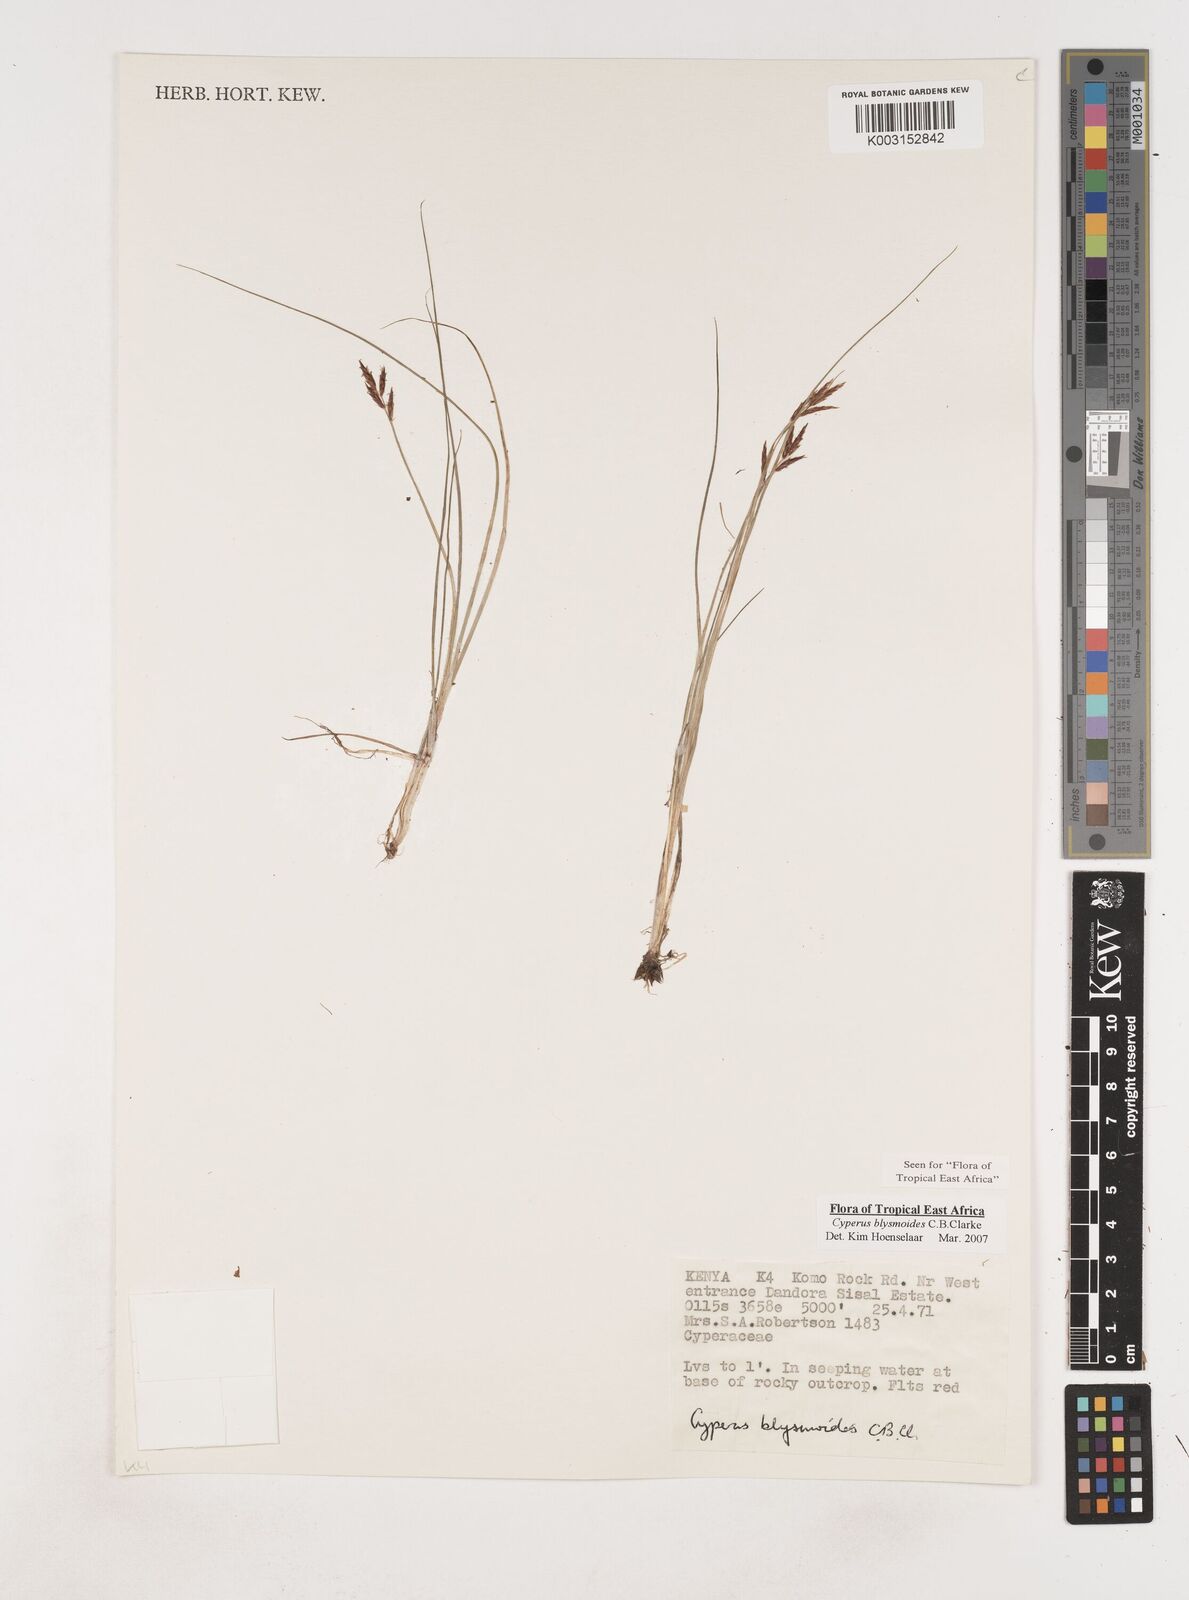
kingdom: Plantae
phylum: Tracheophyta
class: Liliopsida
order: Poales
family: Cyperaceae
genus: Cyperus
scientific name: Cyperus blysmoides
